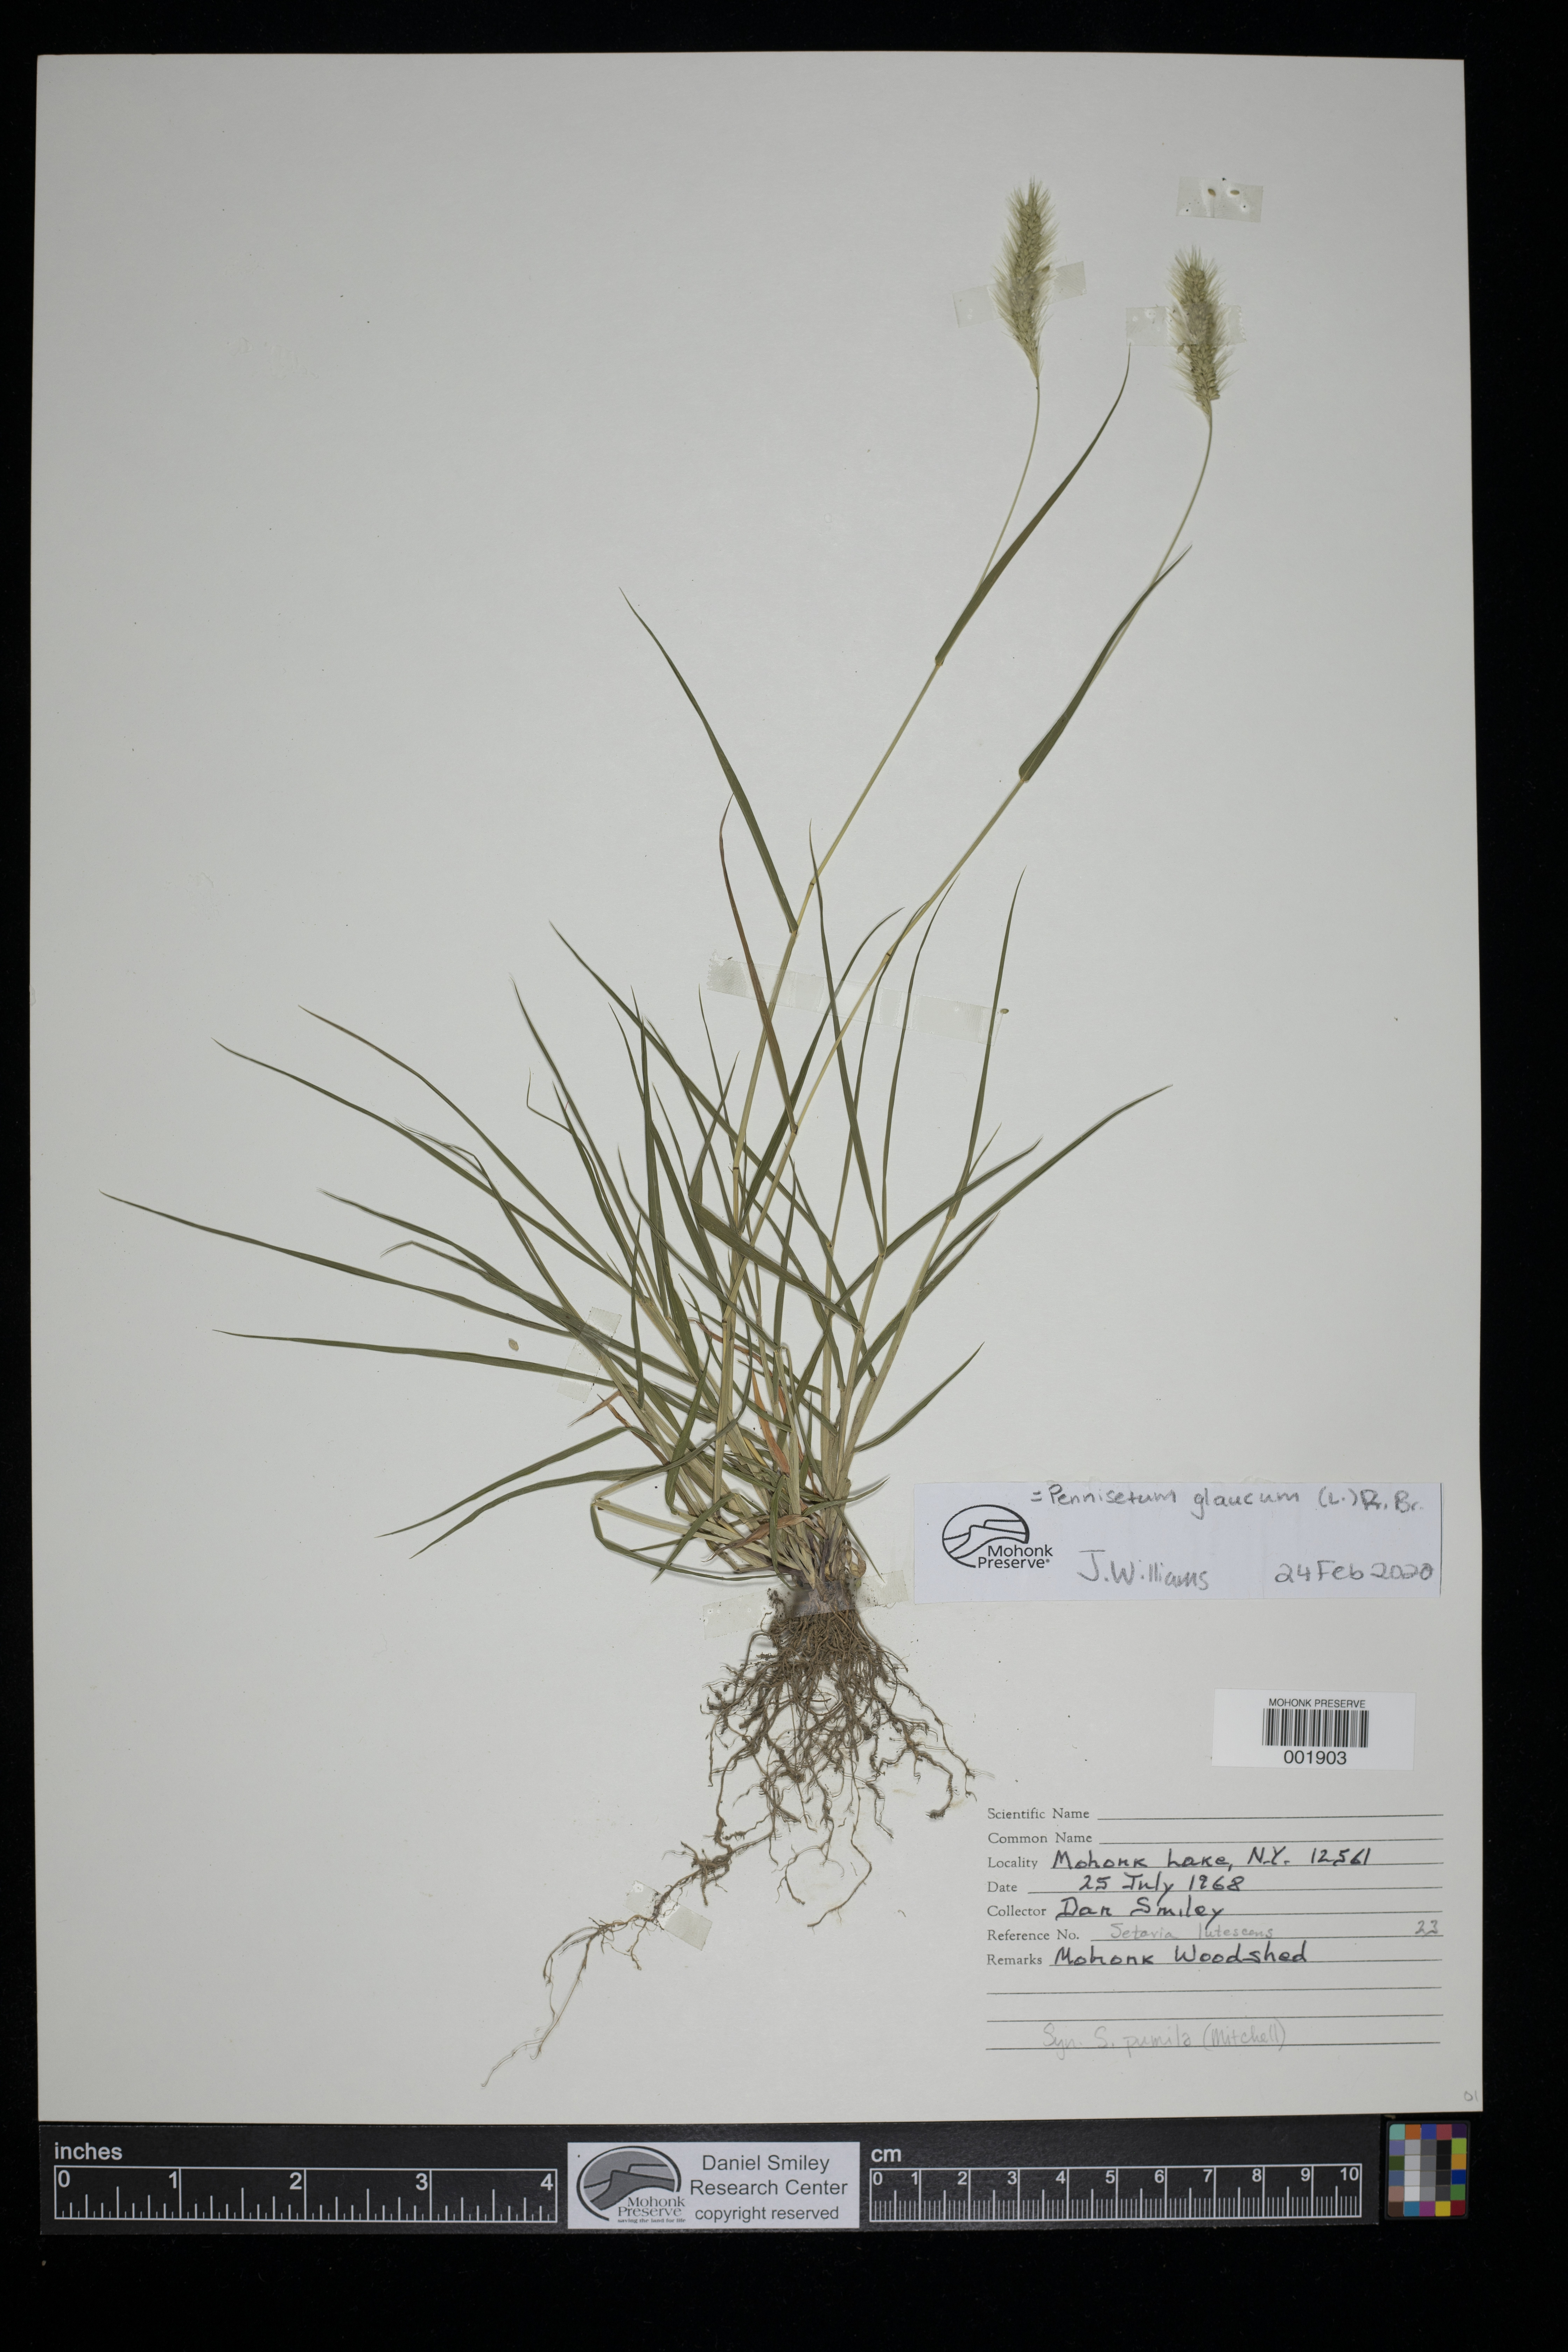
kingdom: Plantae
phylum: Tracheophyta
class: Liliopsida
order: Poales
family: Poaceae
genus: Cenchrus
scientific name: Cenchrus americanus
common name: Pearl millet
